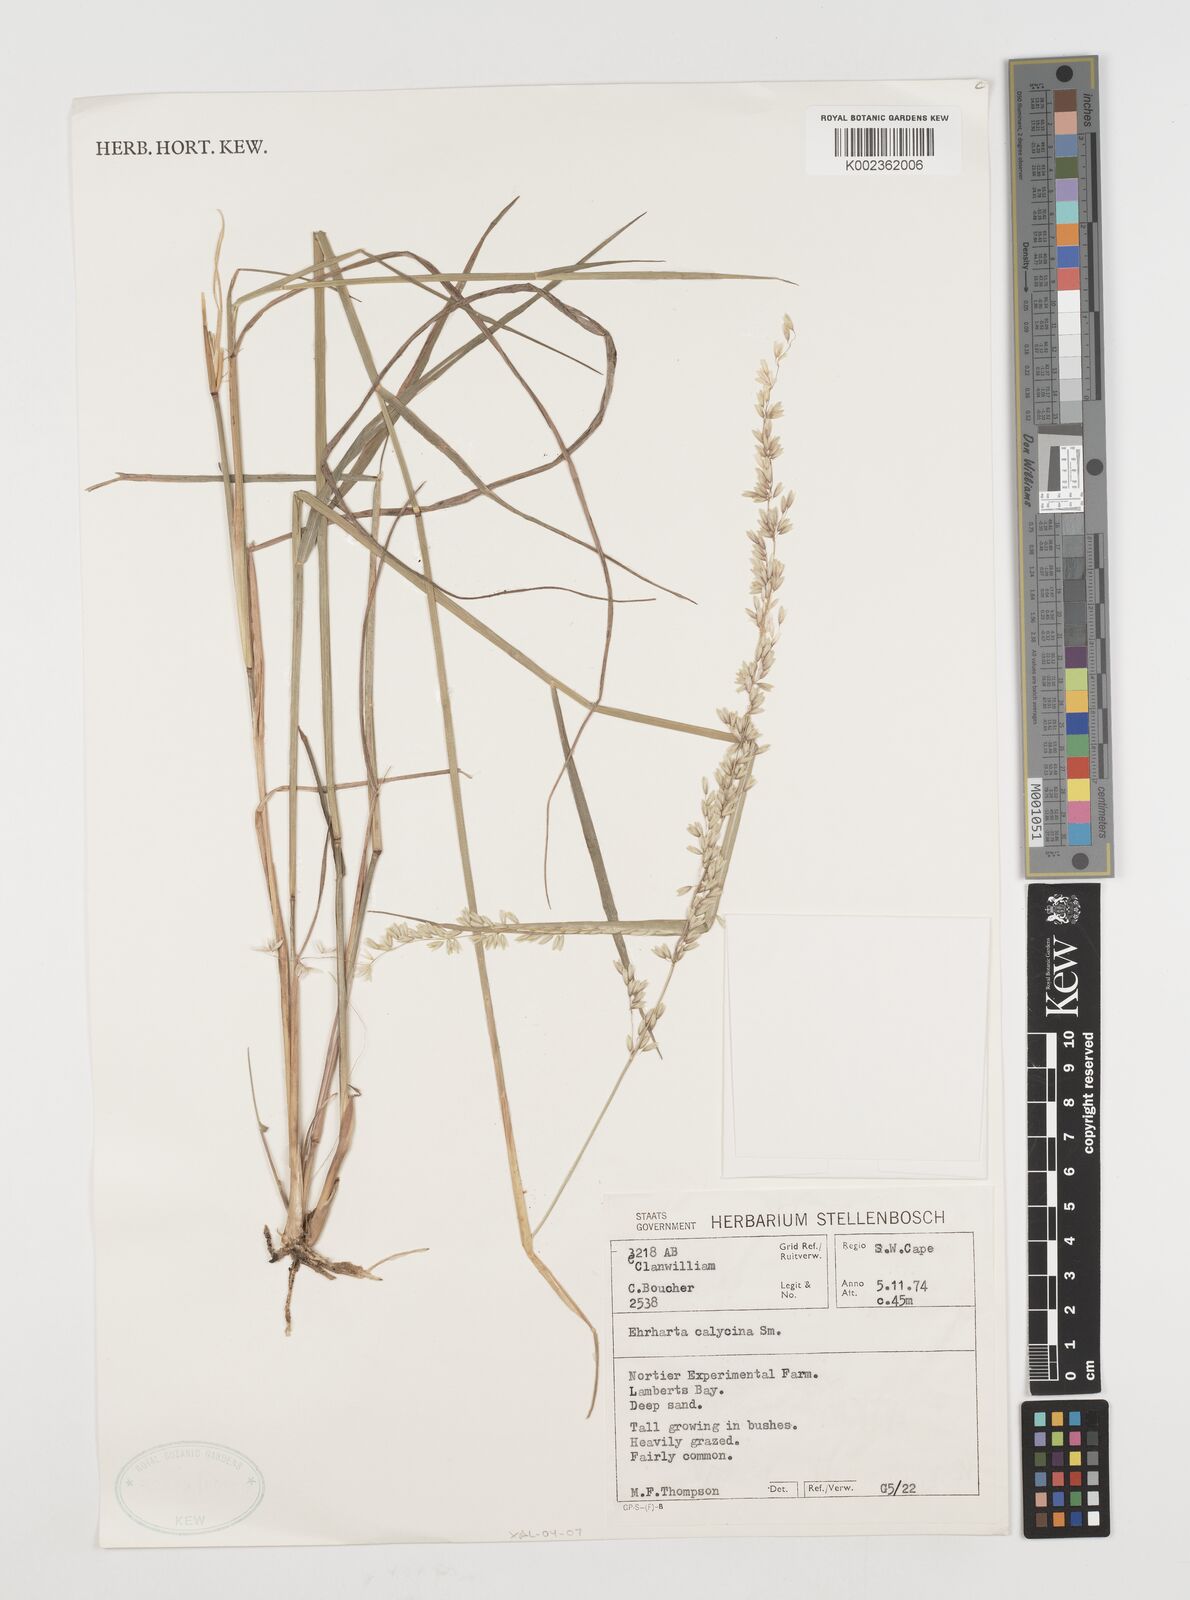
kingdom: Plantae
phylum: Tracheophyta
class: Liliopsida
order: Poales
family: Poaceae
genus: Ehrharta
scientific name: Ehrharta calycina
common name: Perennial veldtgrass
